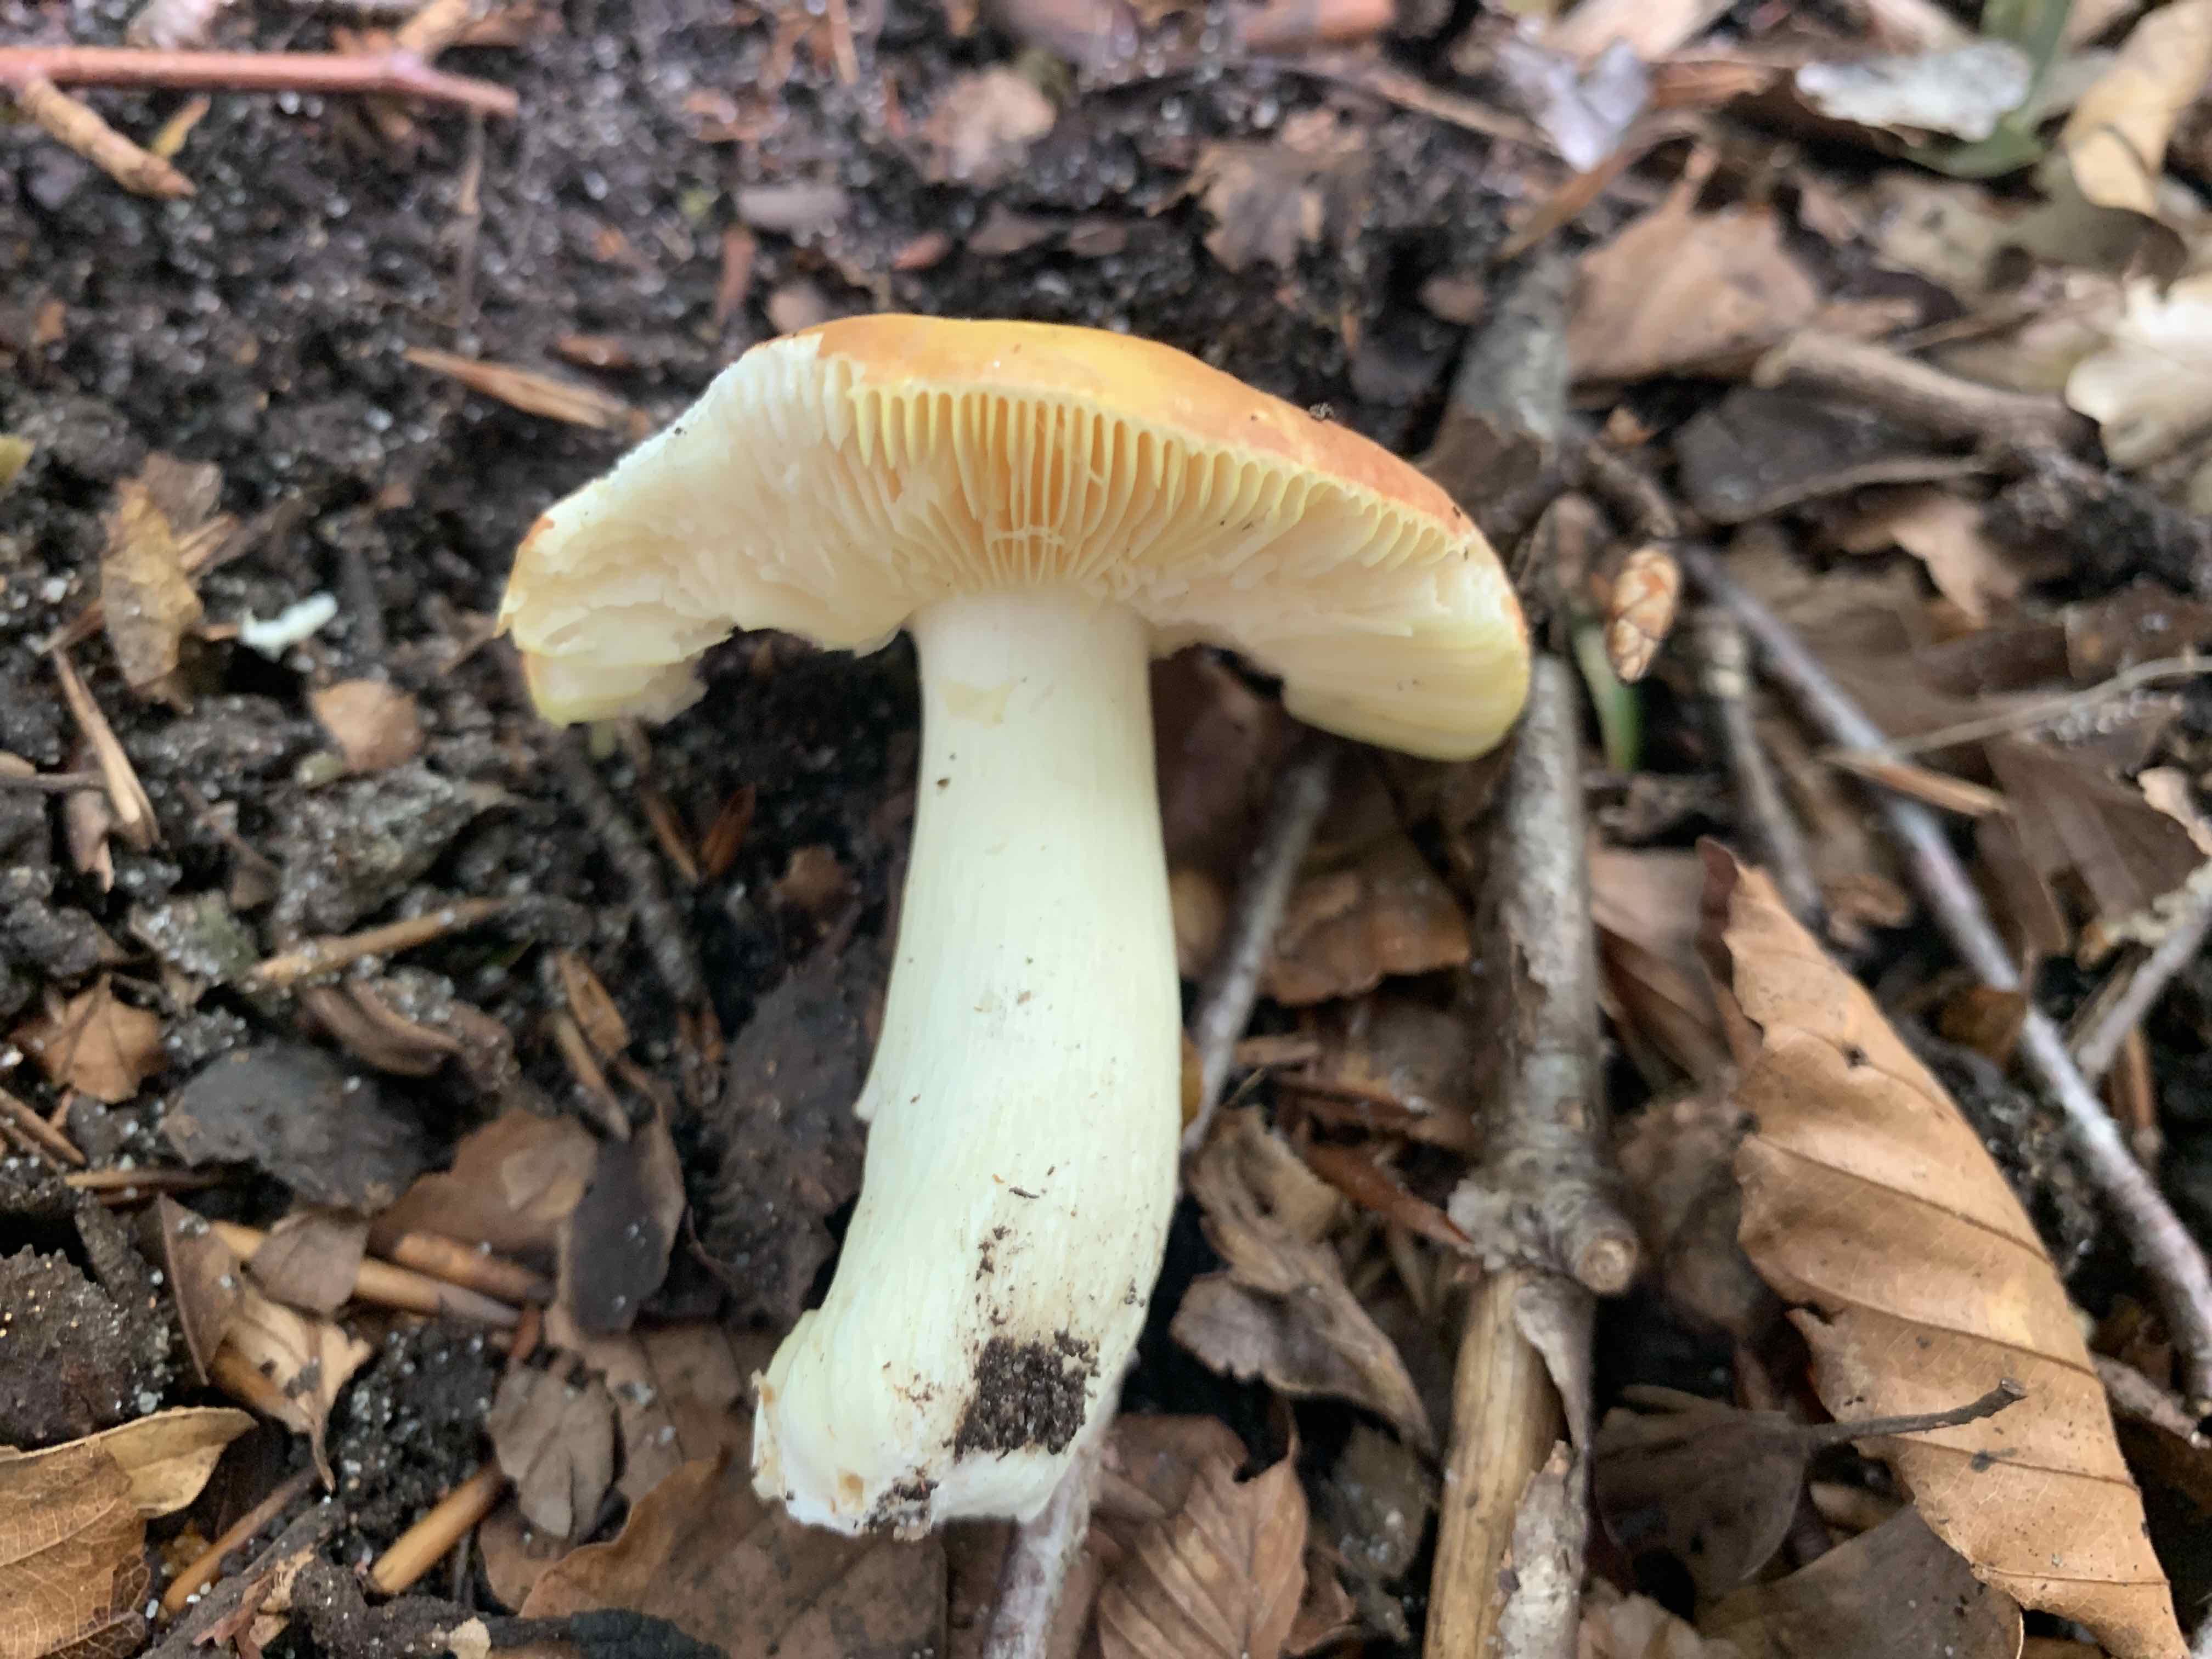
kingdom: Fungi
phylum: Basidiomycota
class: Agaricomycetes
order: Russulales
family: Russulaceae
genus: Russula
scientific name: Russula aurea
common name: gylden skørhat
